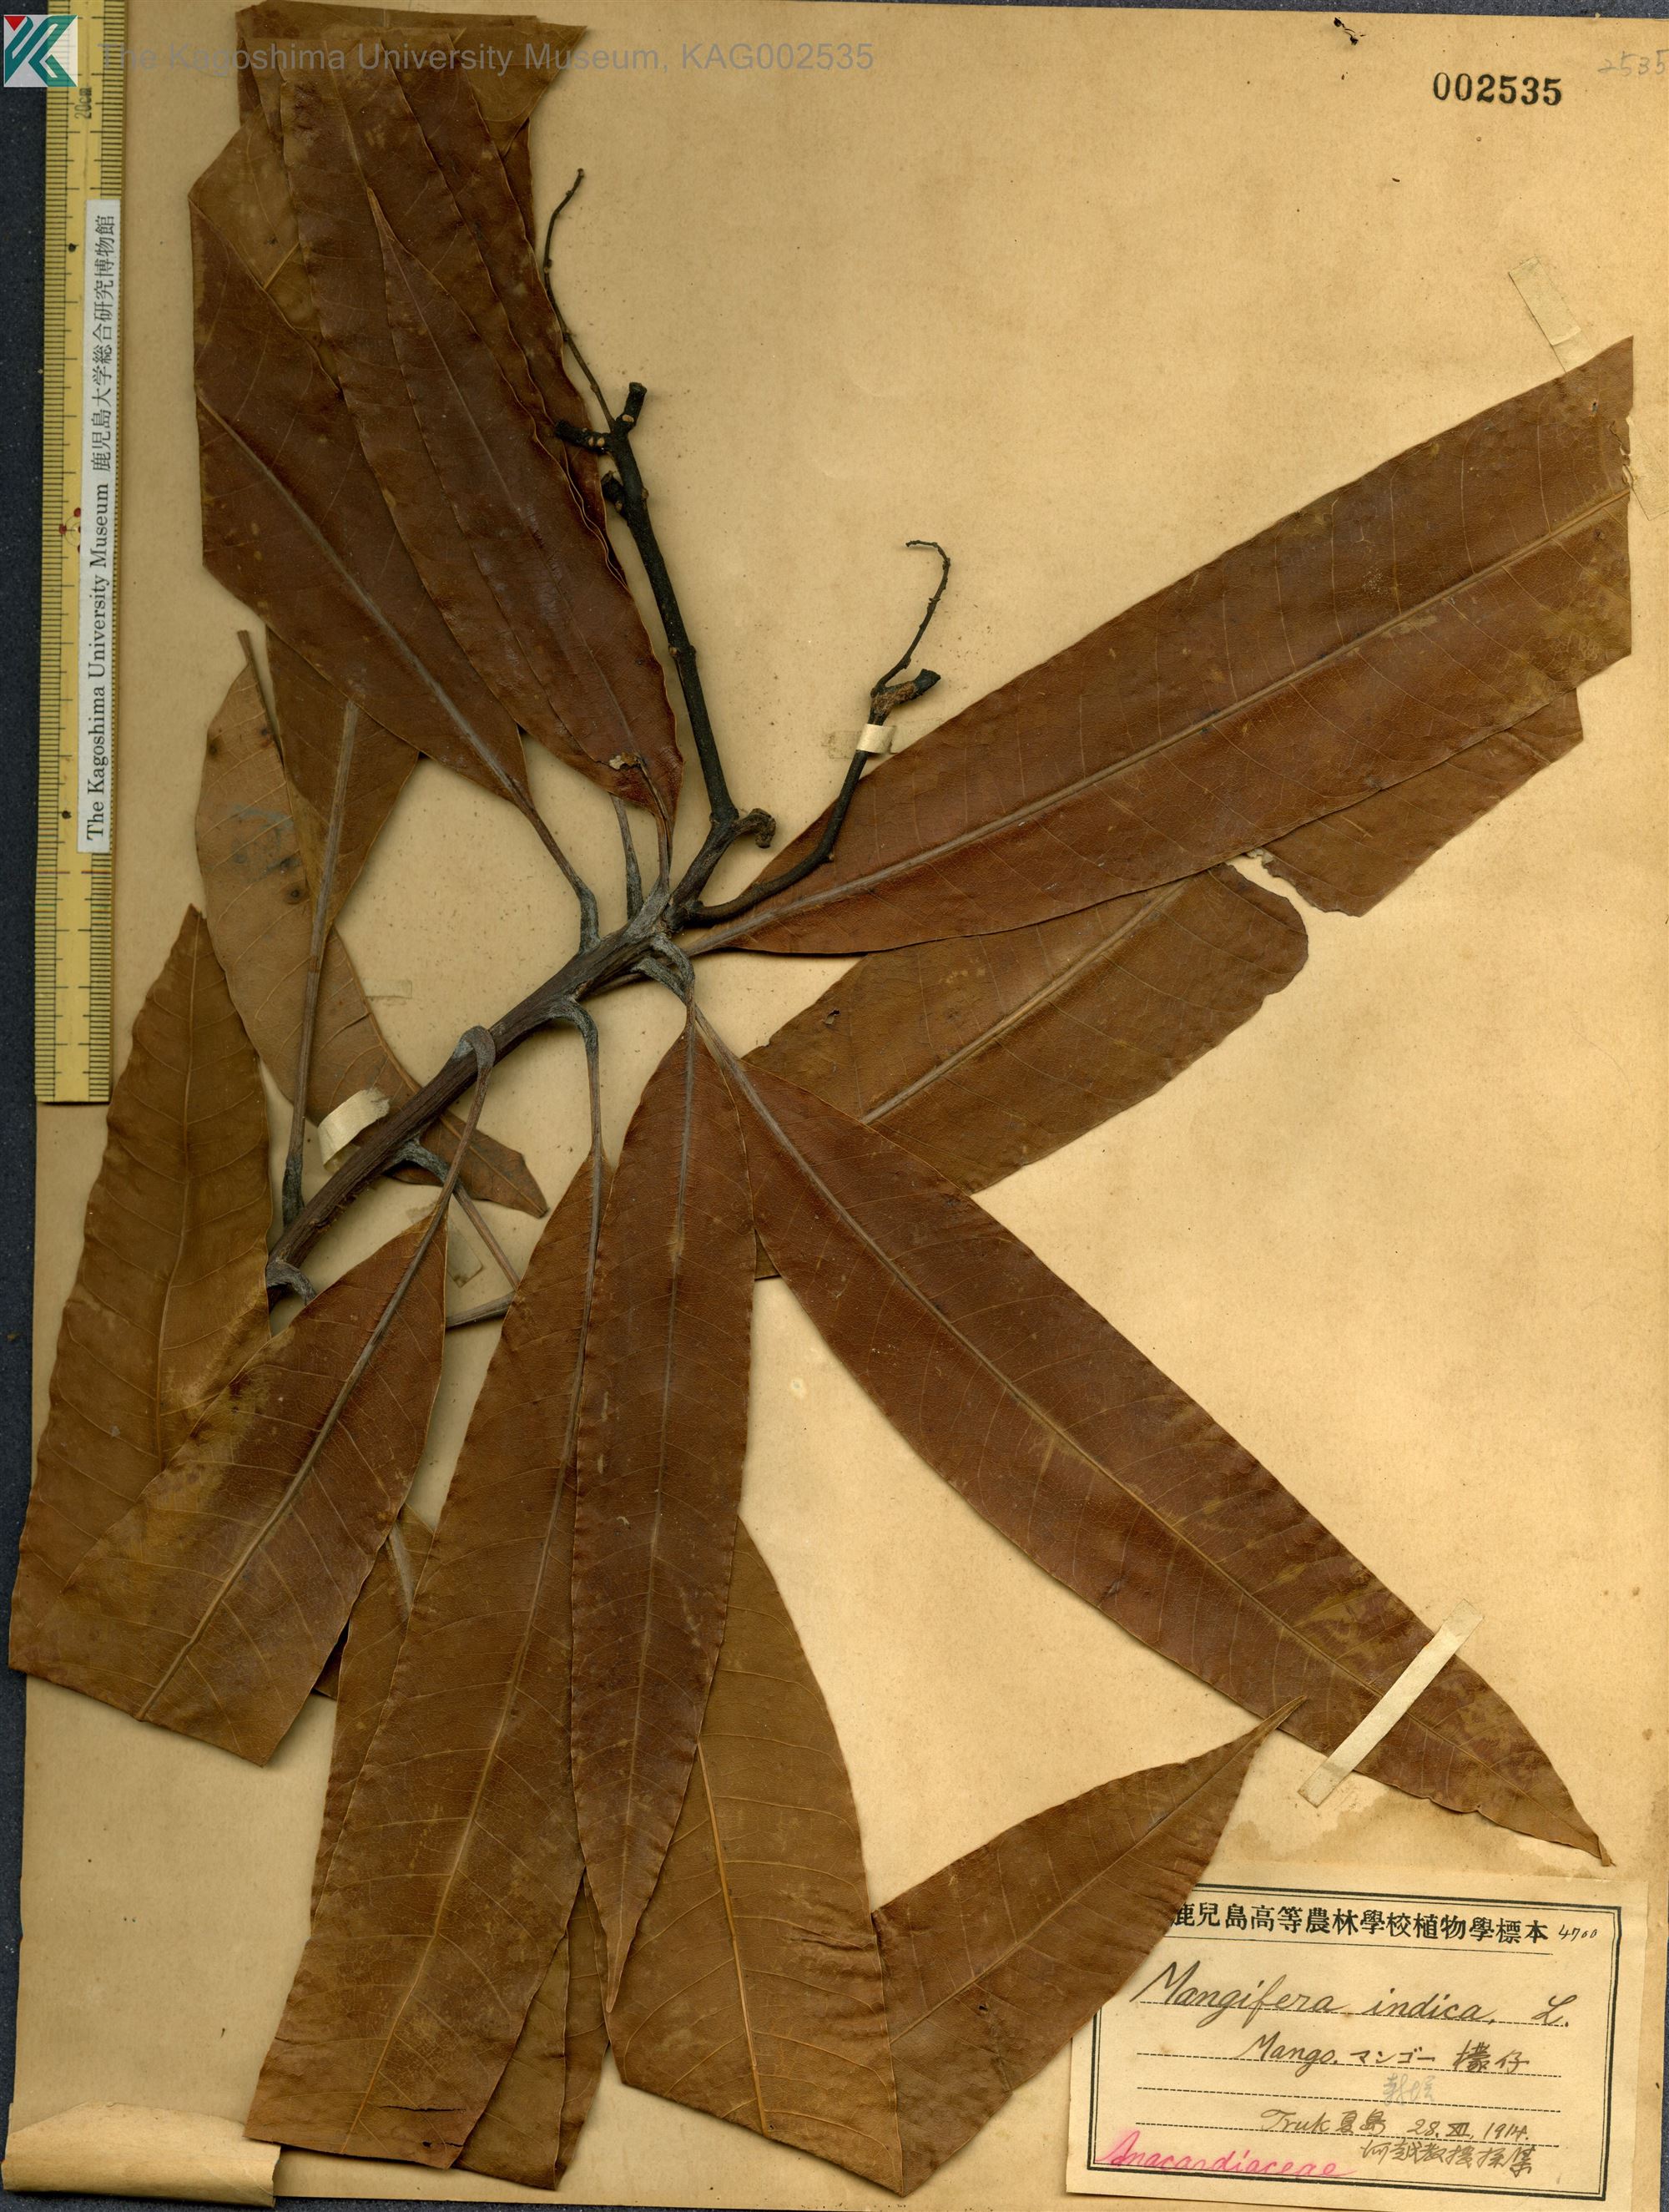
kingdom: Plantae
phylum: Tracheophyta
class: Magnoliopsida
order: Sapindales
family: Anacardiaceae
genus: Mangifera
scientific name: Mangifera indica
